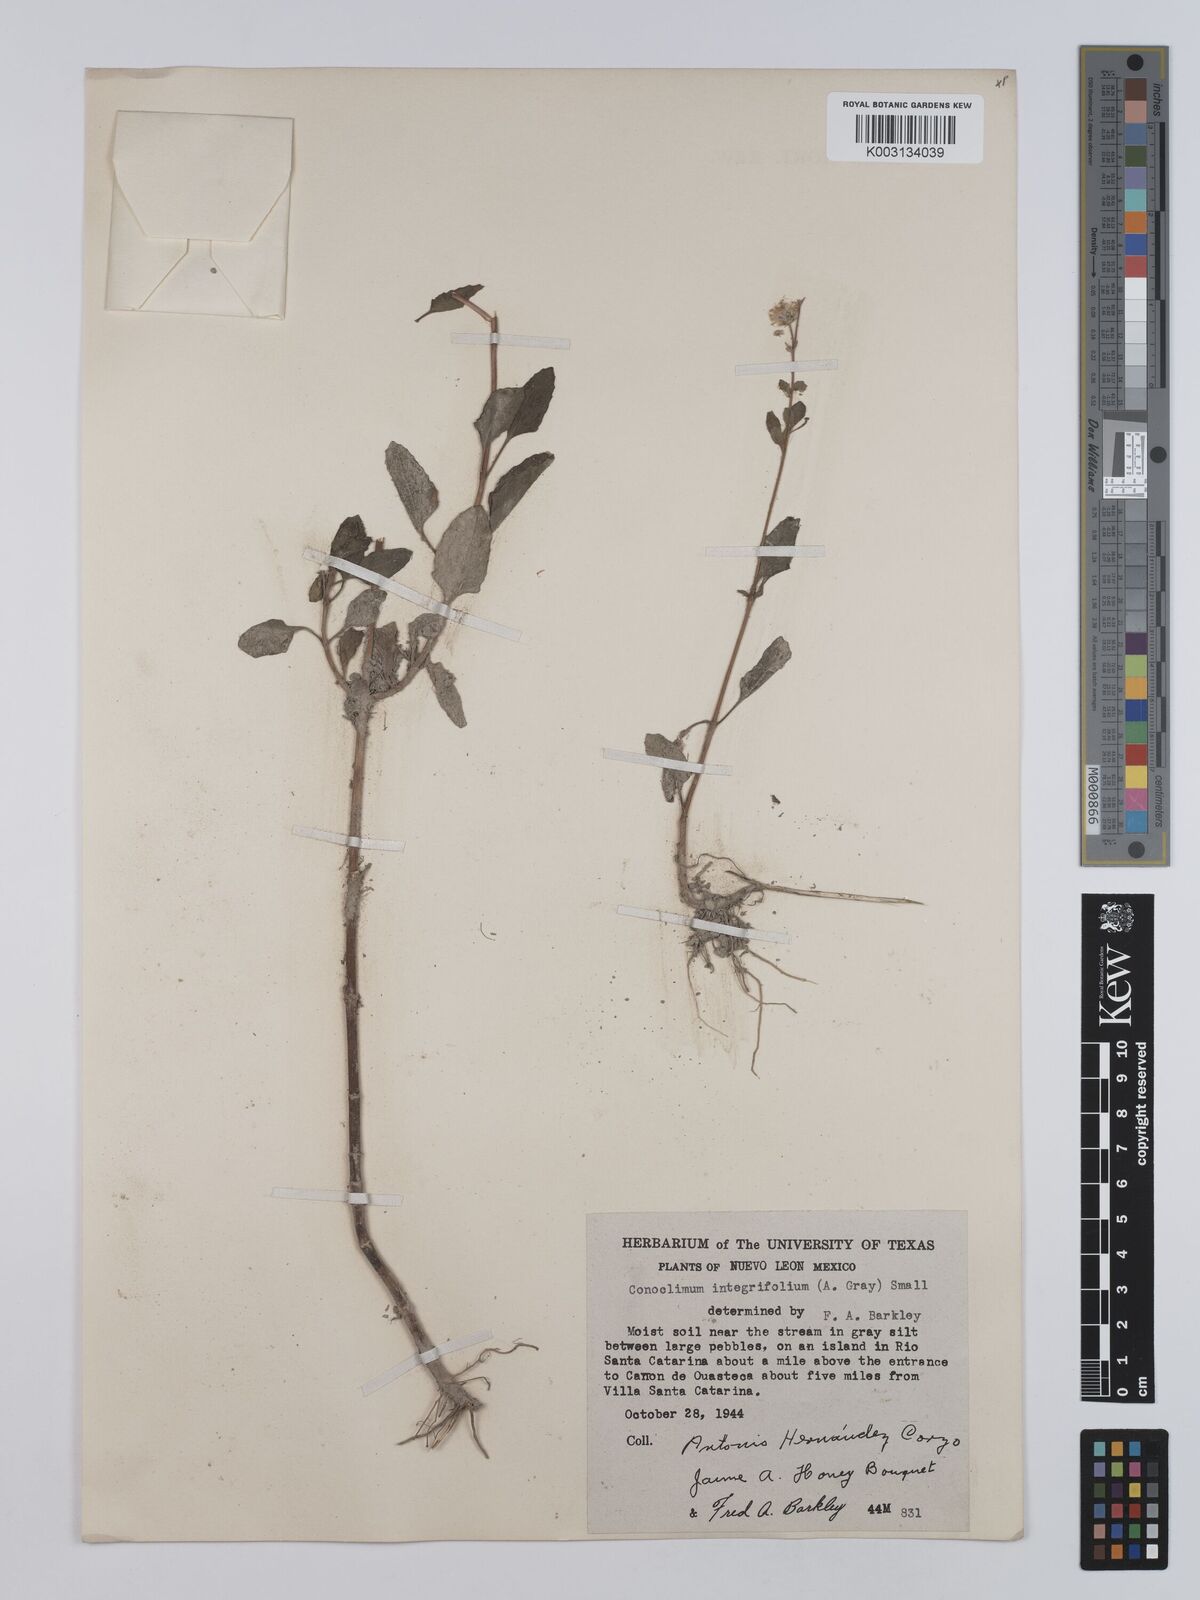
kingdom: Plantae
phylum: Tracheophyta
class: Magnoliopsida
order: Asterales
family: Asteraceae
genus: Conoclinium
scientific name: Conoclinium betonicifolium
